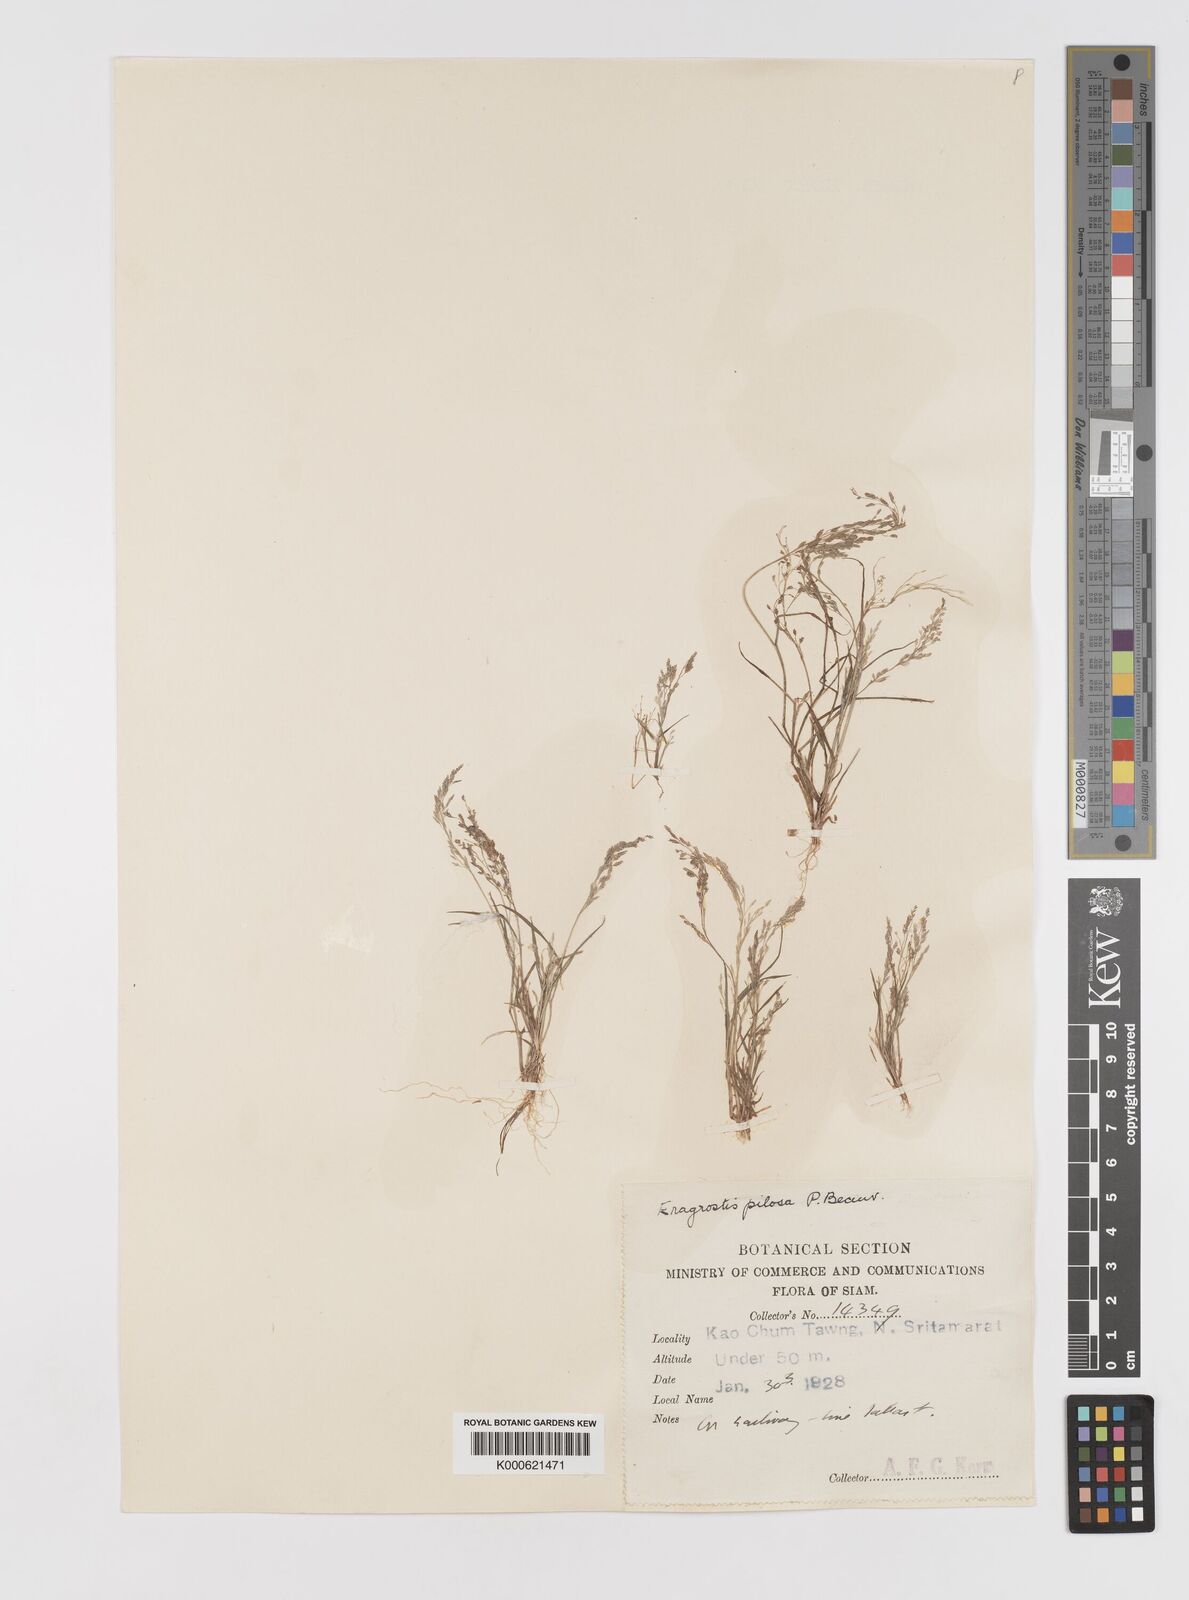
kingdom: Plantae
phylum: Tracheophyta
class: Liliopsida
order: Poales
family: Poaceae
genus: Eragrostis
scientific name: Eragrostis pilosa
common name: Indian lovegrass
